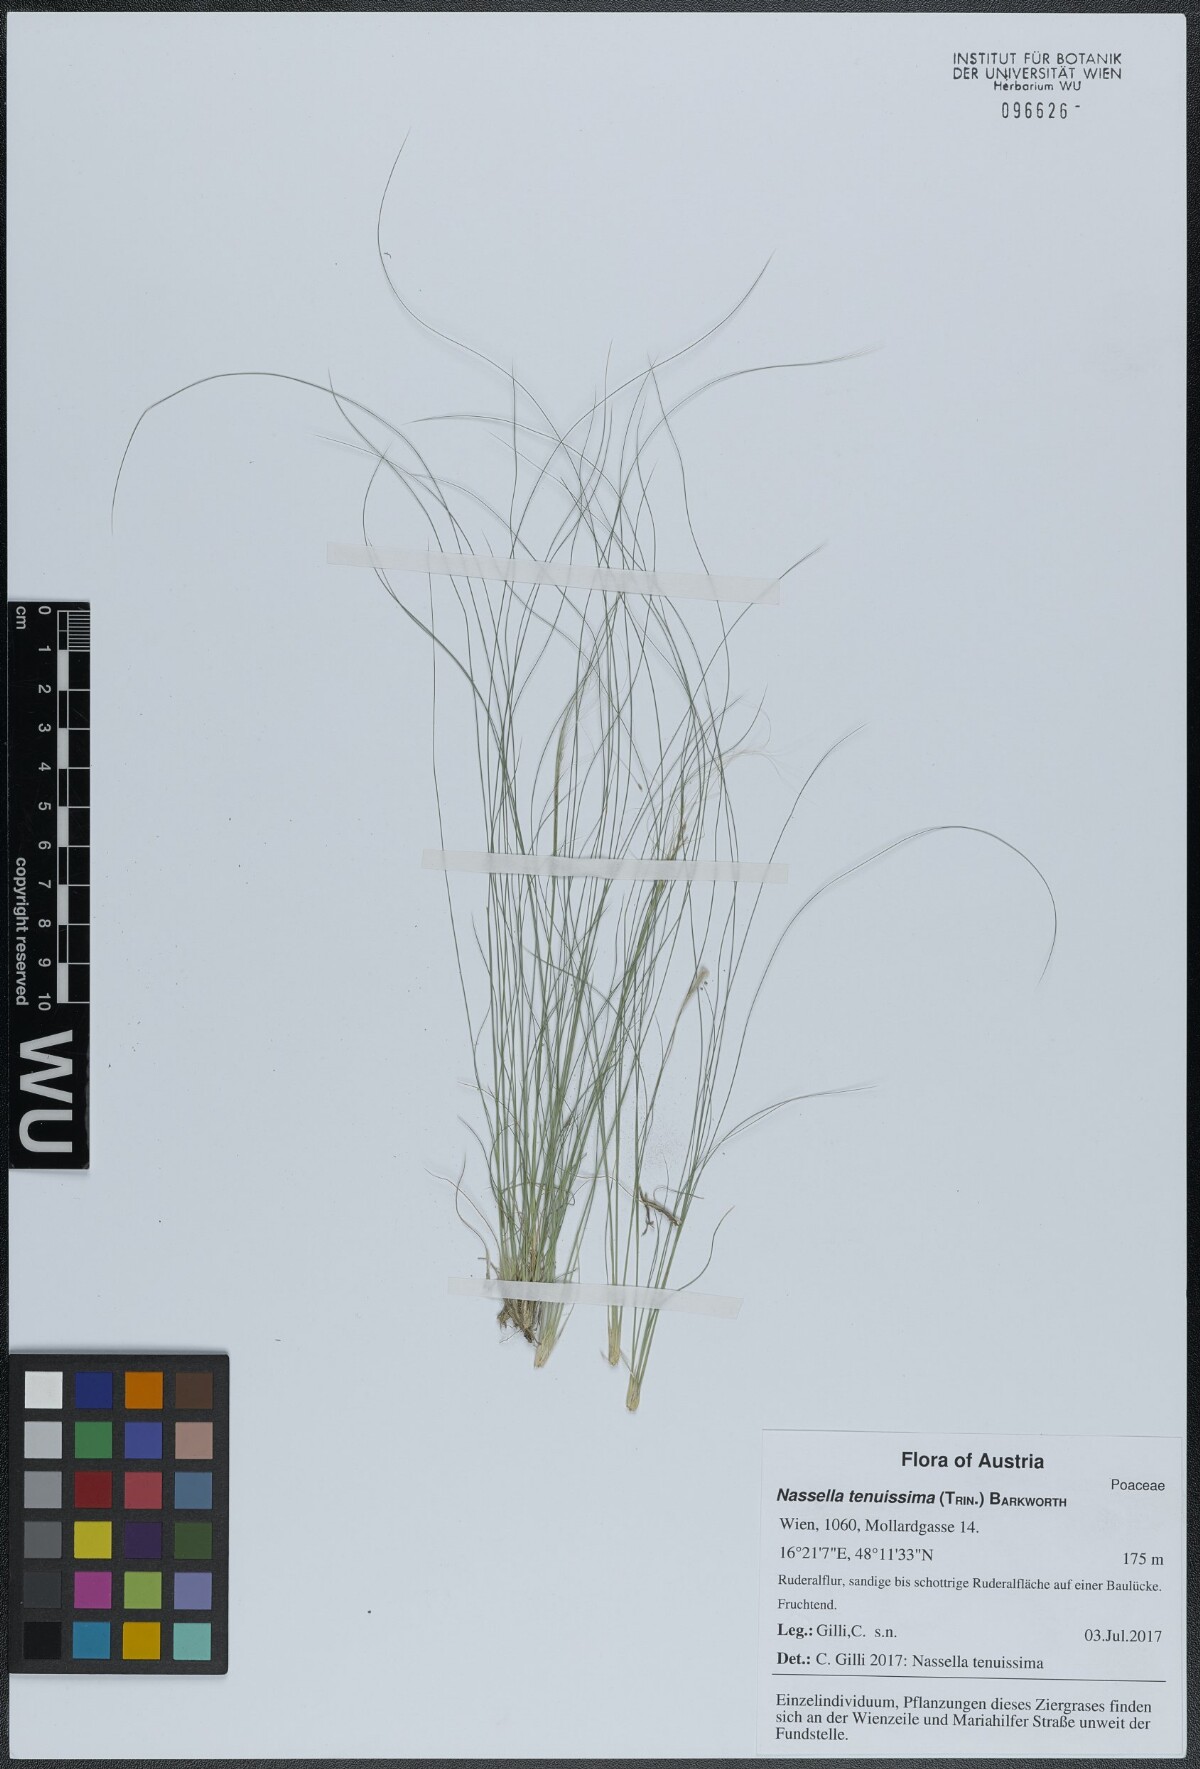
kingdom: Plantae
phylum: Tracheophyta
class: Liliopsida
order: Poales
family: Poaceae
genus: Nassella
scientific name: Nassella tenuissima
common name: Argentine needlegrass
